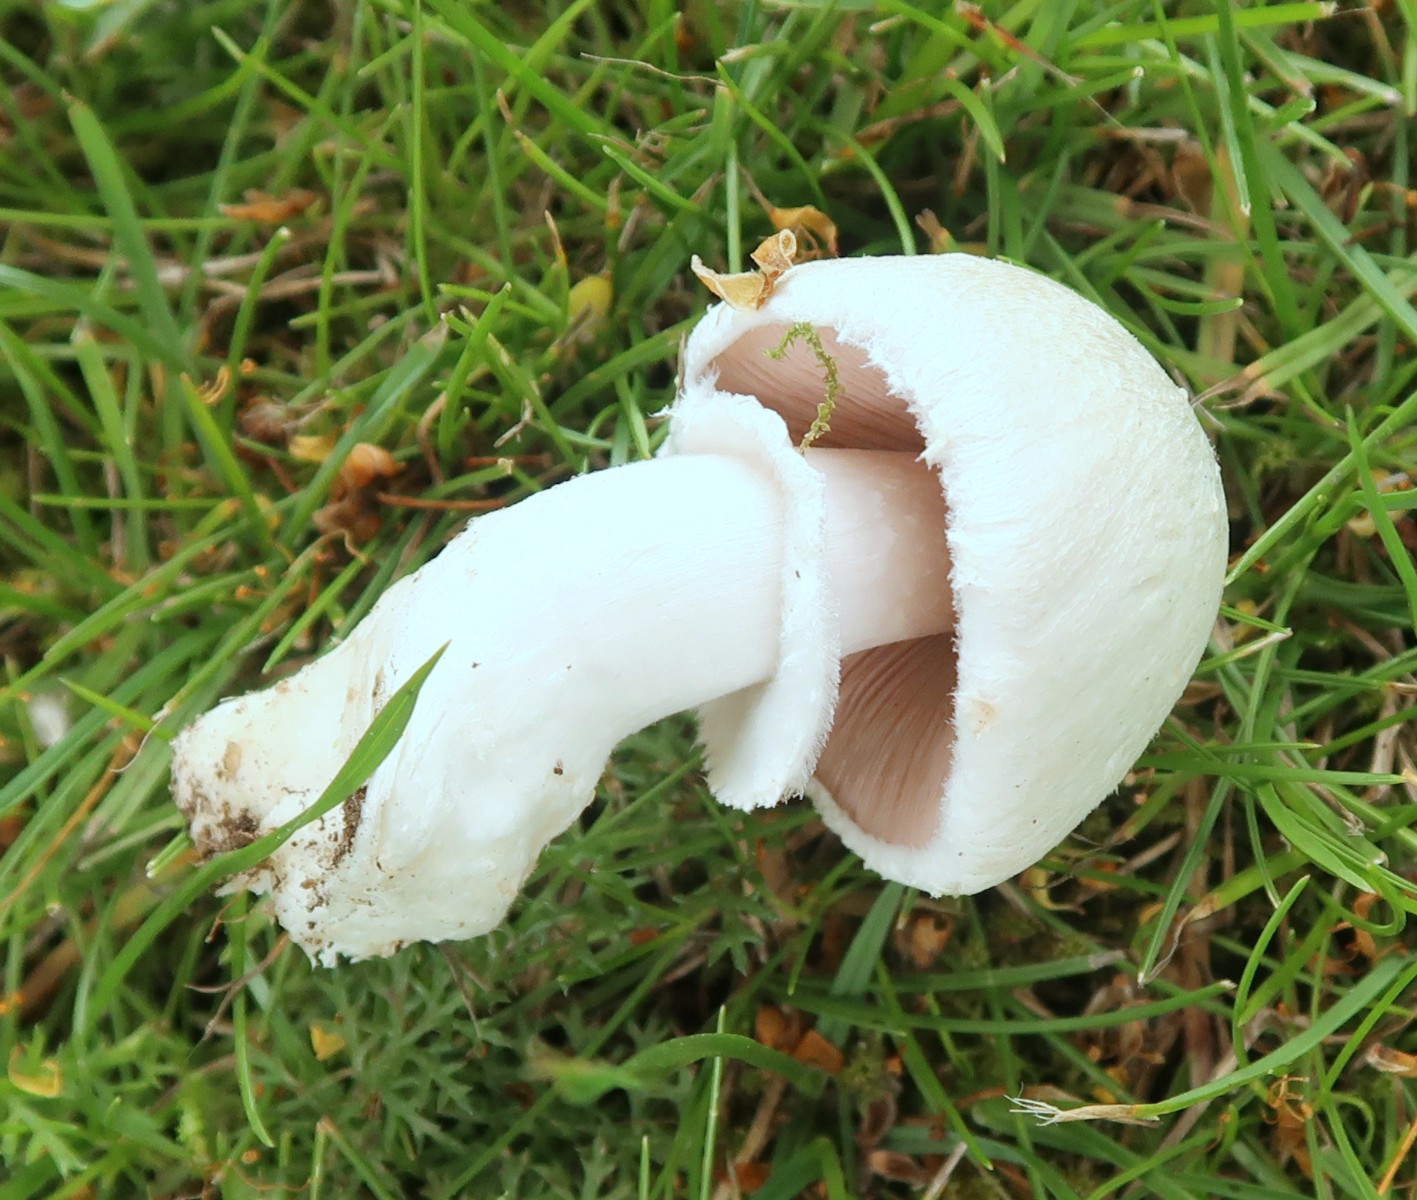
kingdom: Fungi
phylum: Basidiomycota
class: Agaricomycetes
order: Agaricales
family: Agaricaceae
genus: Agaricus
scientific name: Agaricus campestris
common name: mark-champignon
